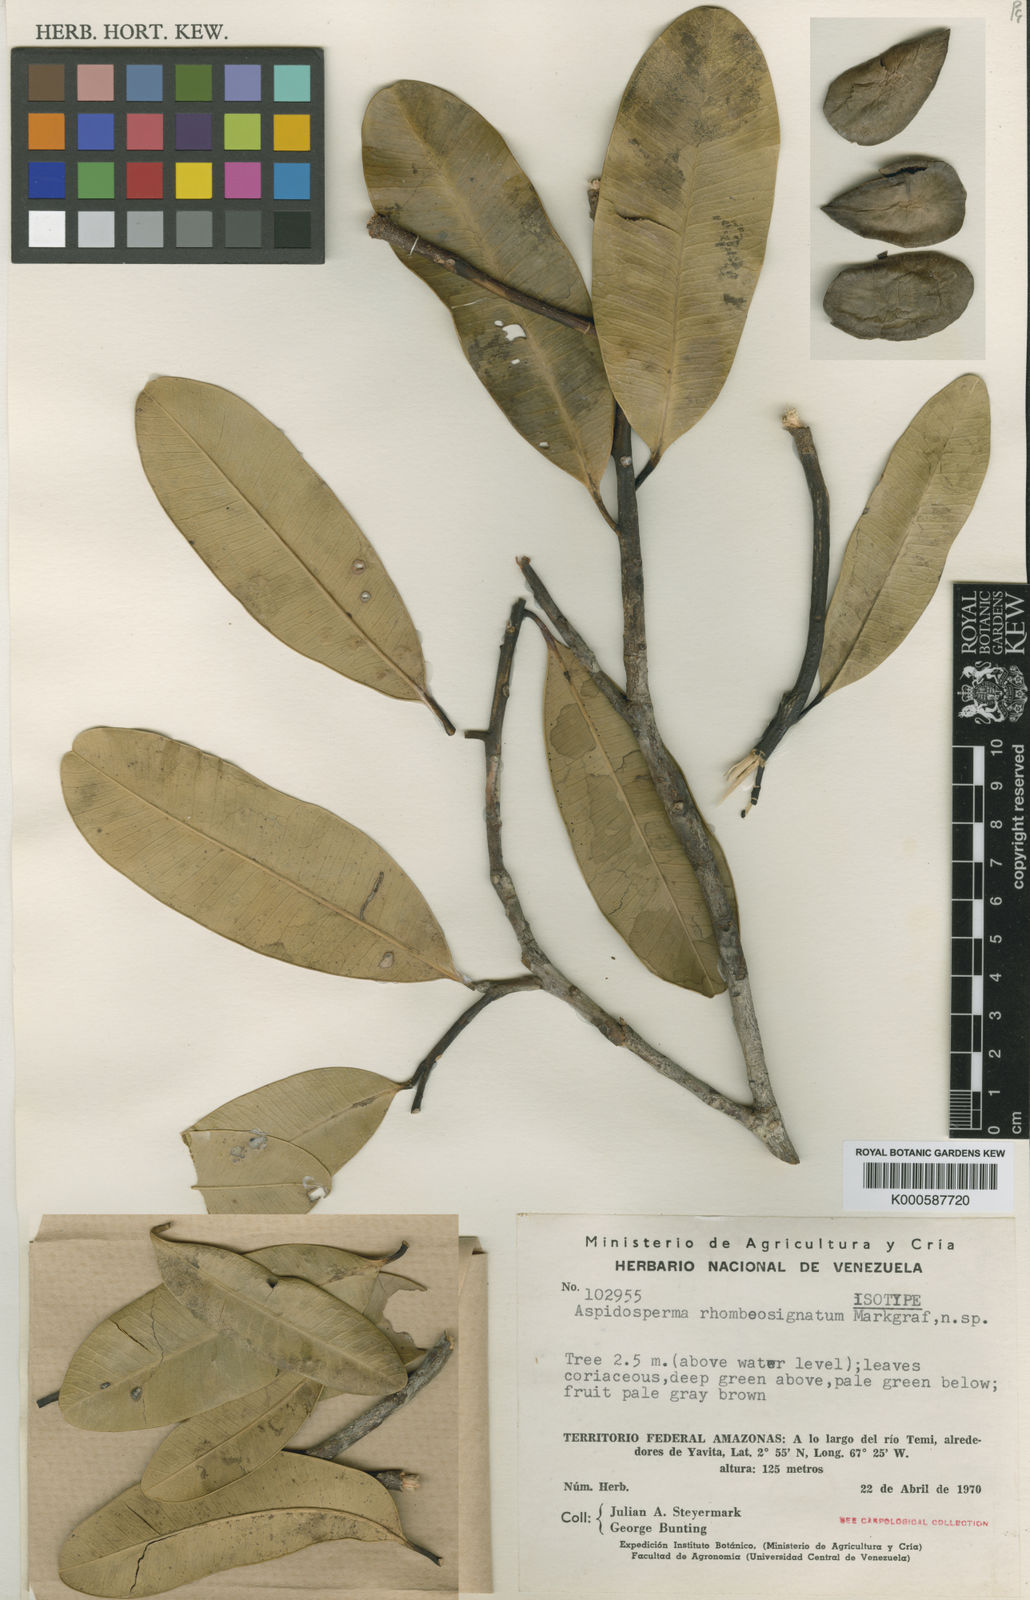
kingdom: Plantae
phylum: Tracheophyta
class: Magnoliopsida
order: Gentianales
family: Apocynaceae
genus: Aspidosperma
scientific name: Aspidosperma pachypterum
